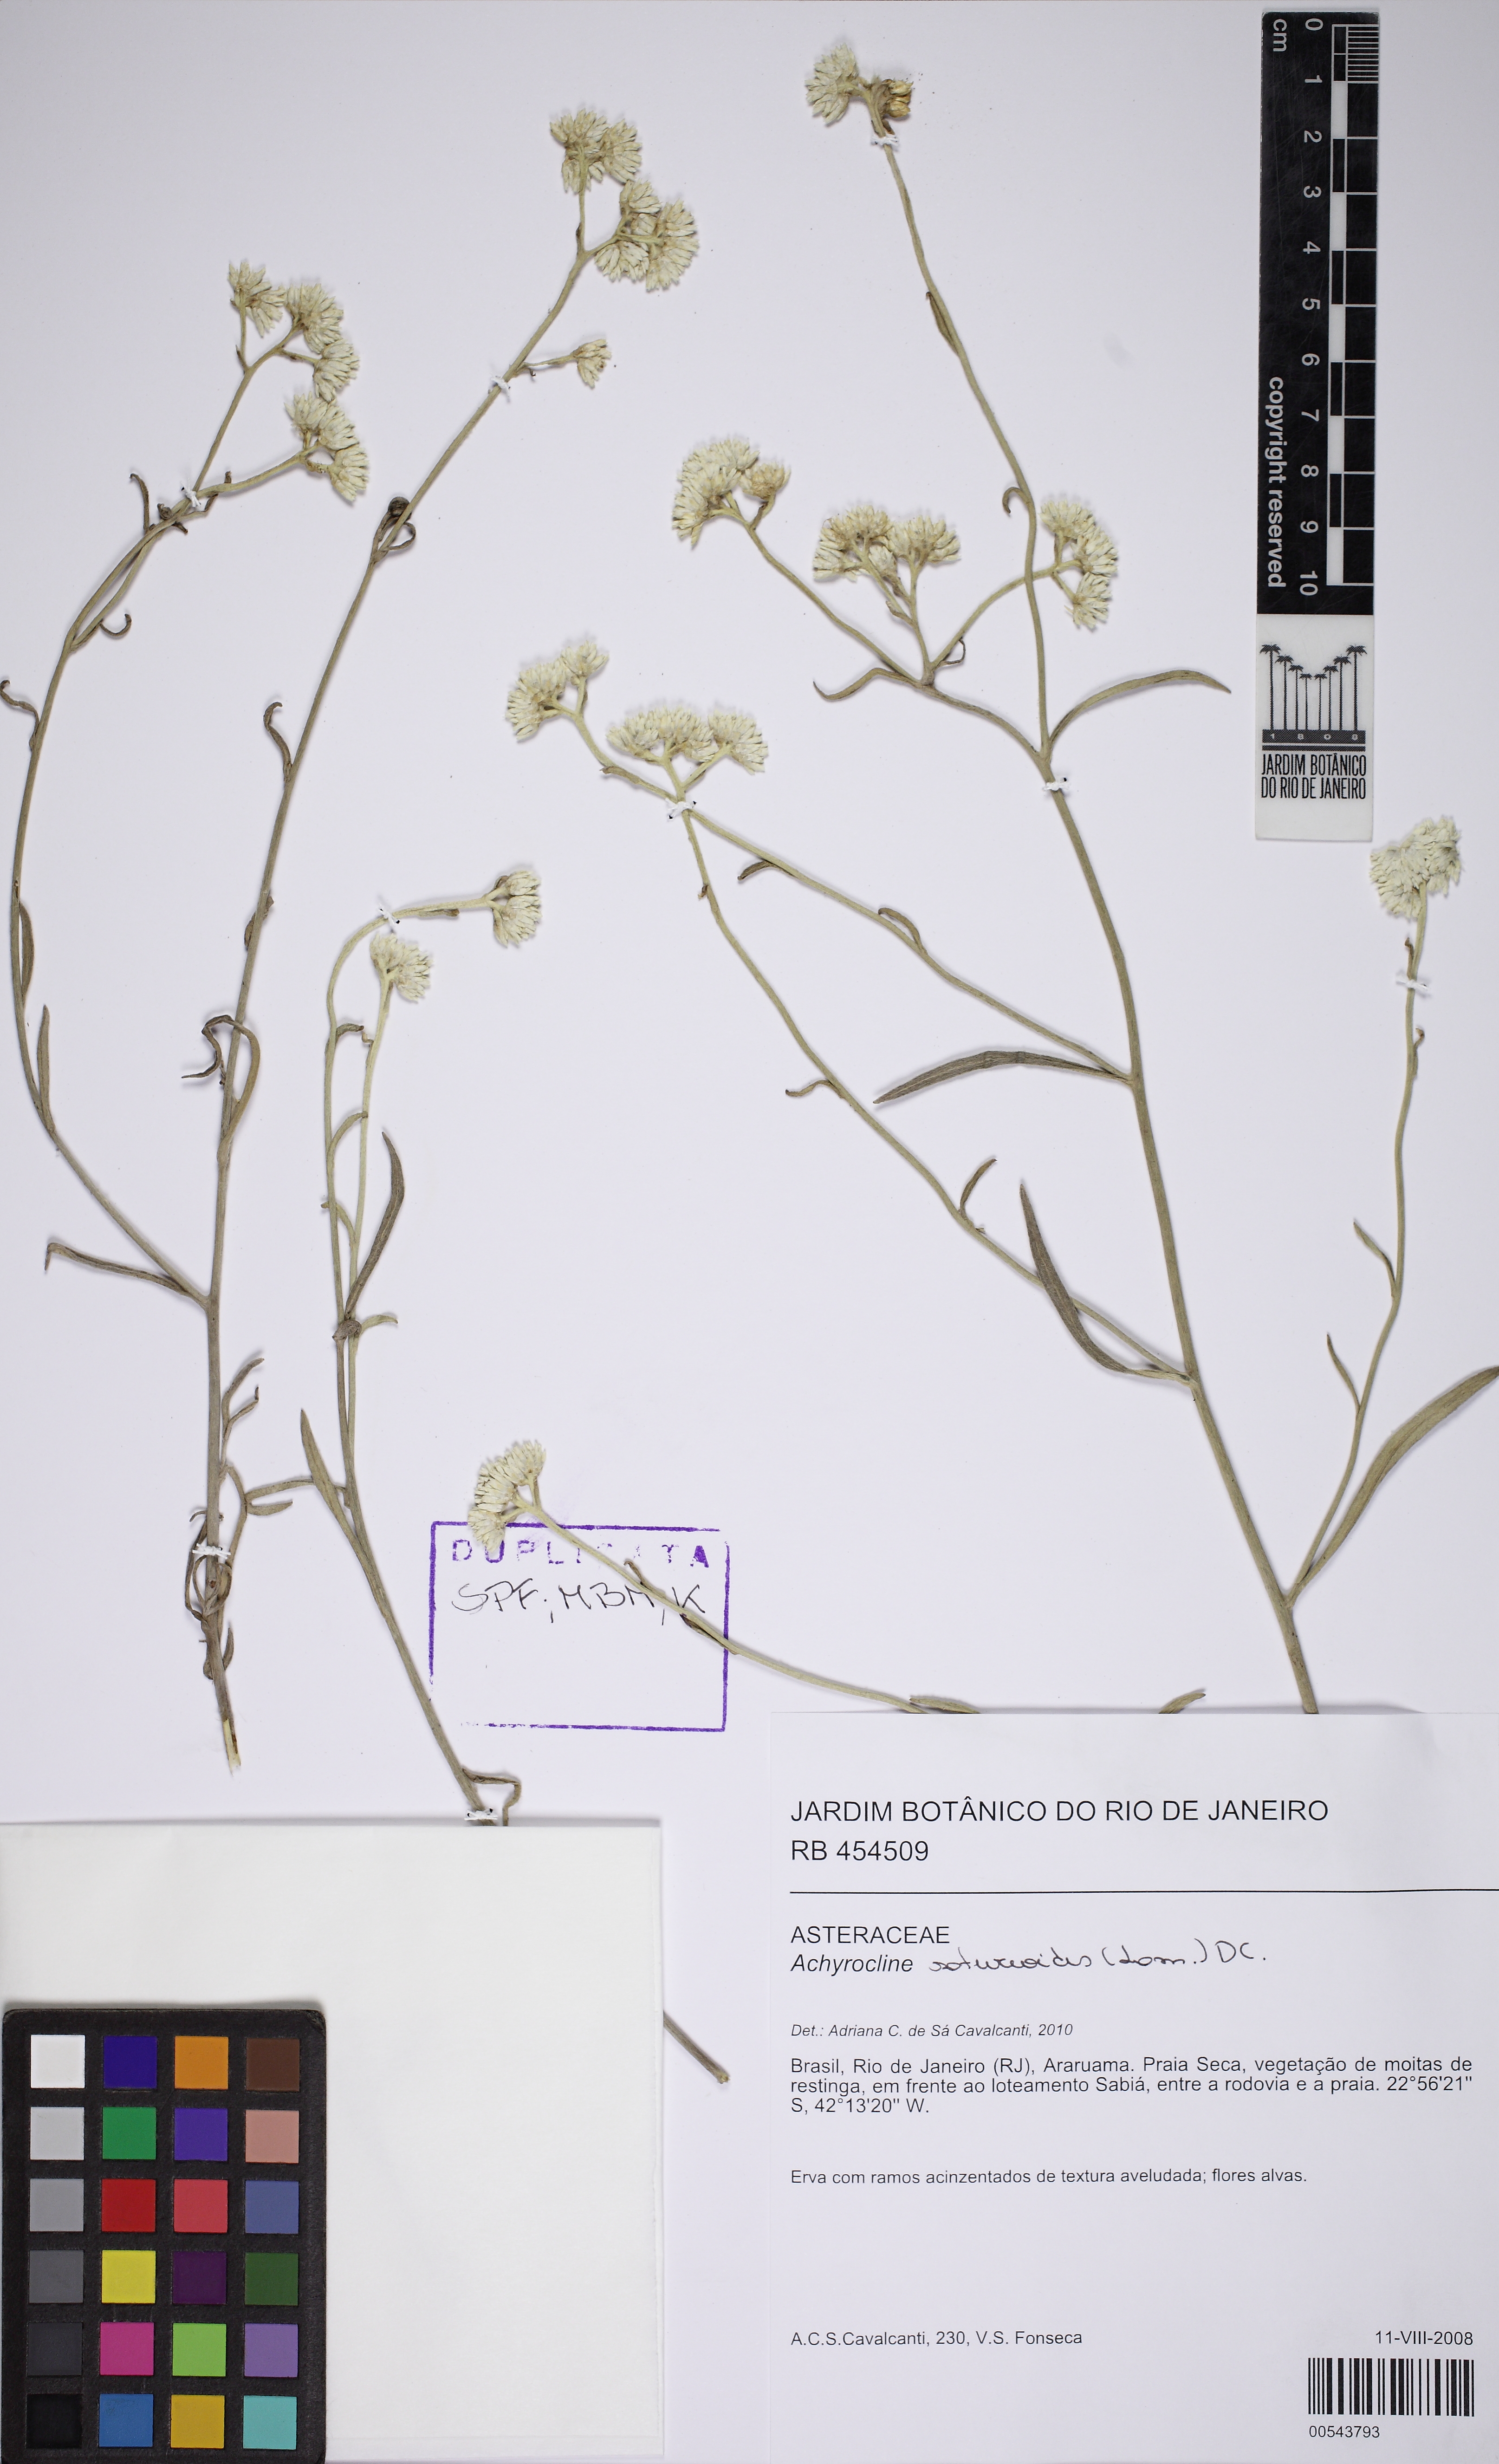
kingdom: Plantae
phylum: Tracheophyta
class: Magnoliopsida
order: Asterales
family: Asteraceae
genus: Achyrocline
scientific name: Achyrocline
